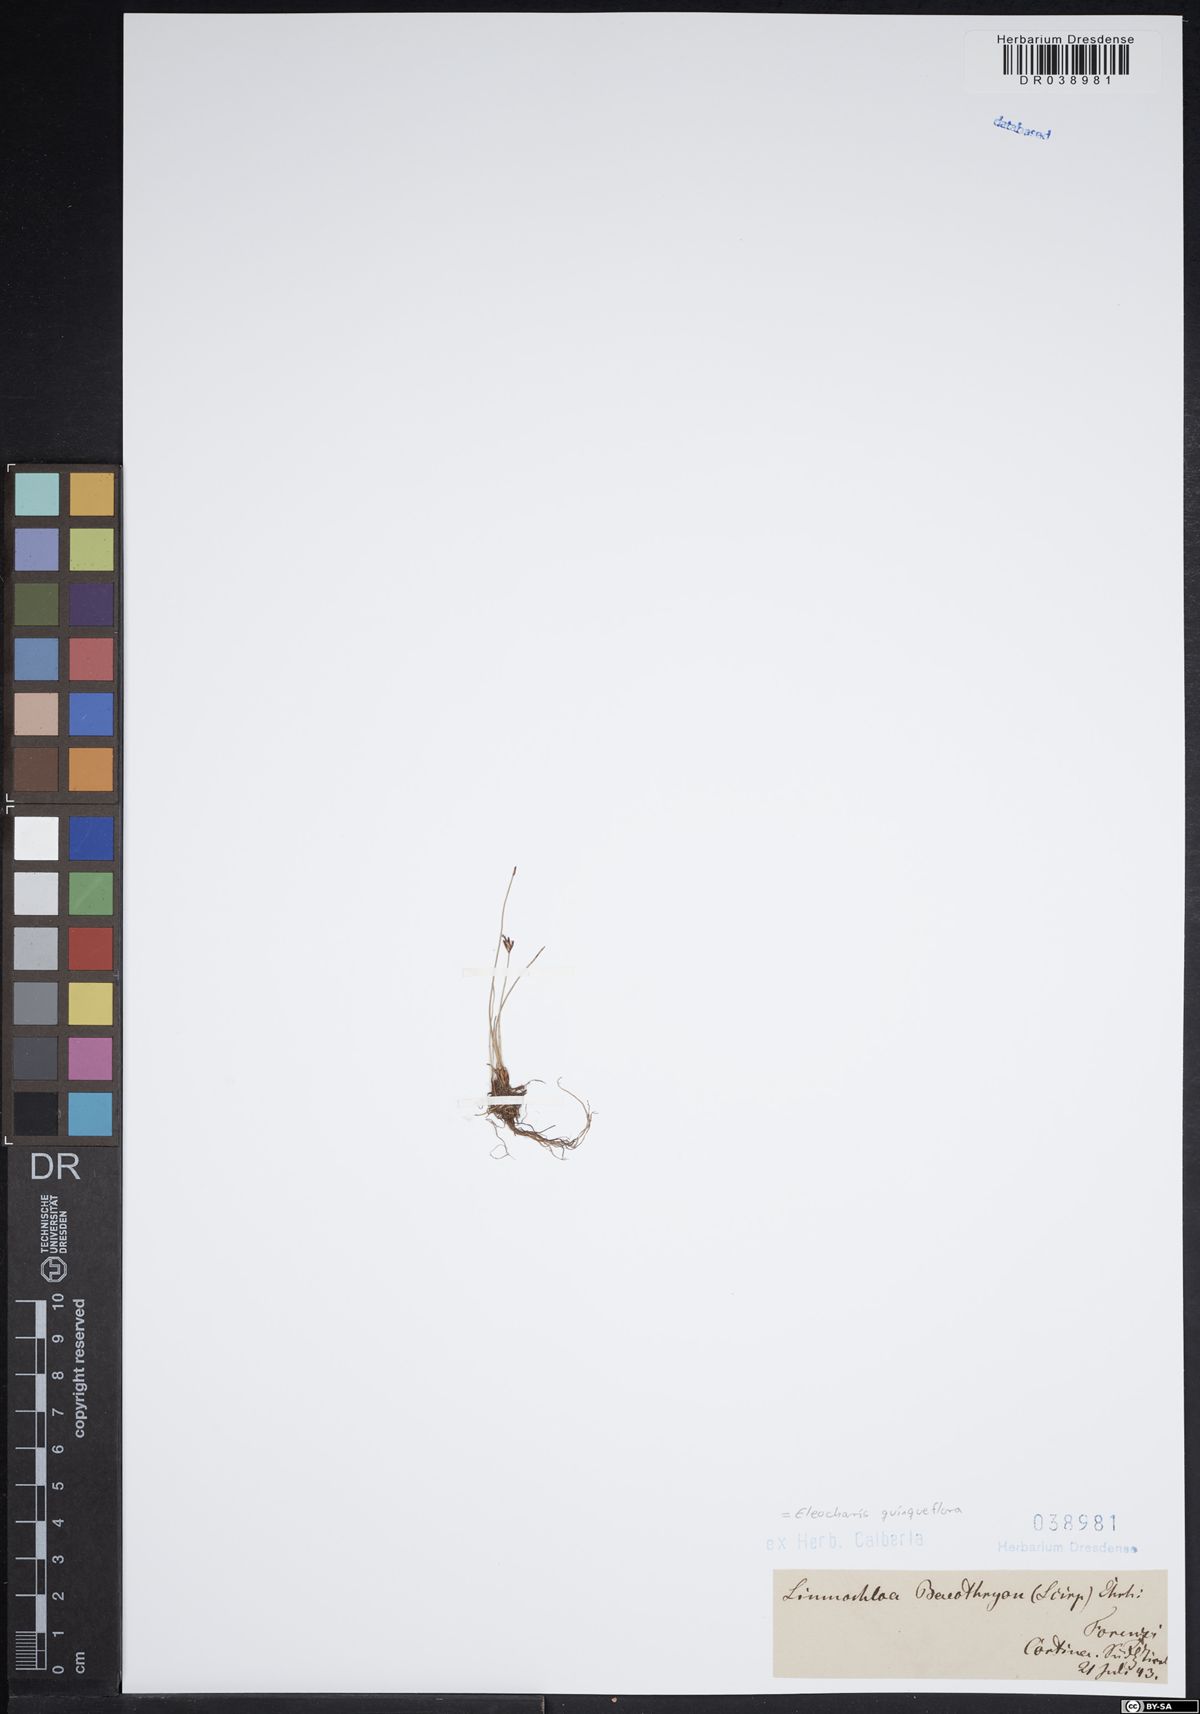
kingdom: Plantae
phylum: Tracheophyta
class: Liliopsida
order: Poales
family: Cyperaceae
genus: Eleocharis
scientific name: Eleocharis quinqueflora
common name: Few-flowered spike-rush
